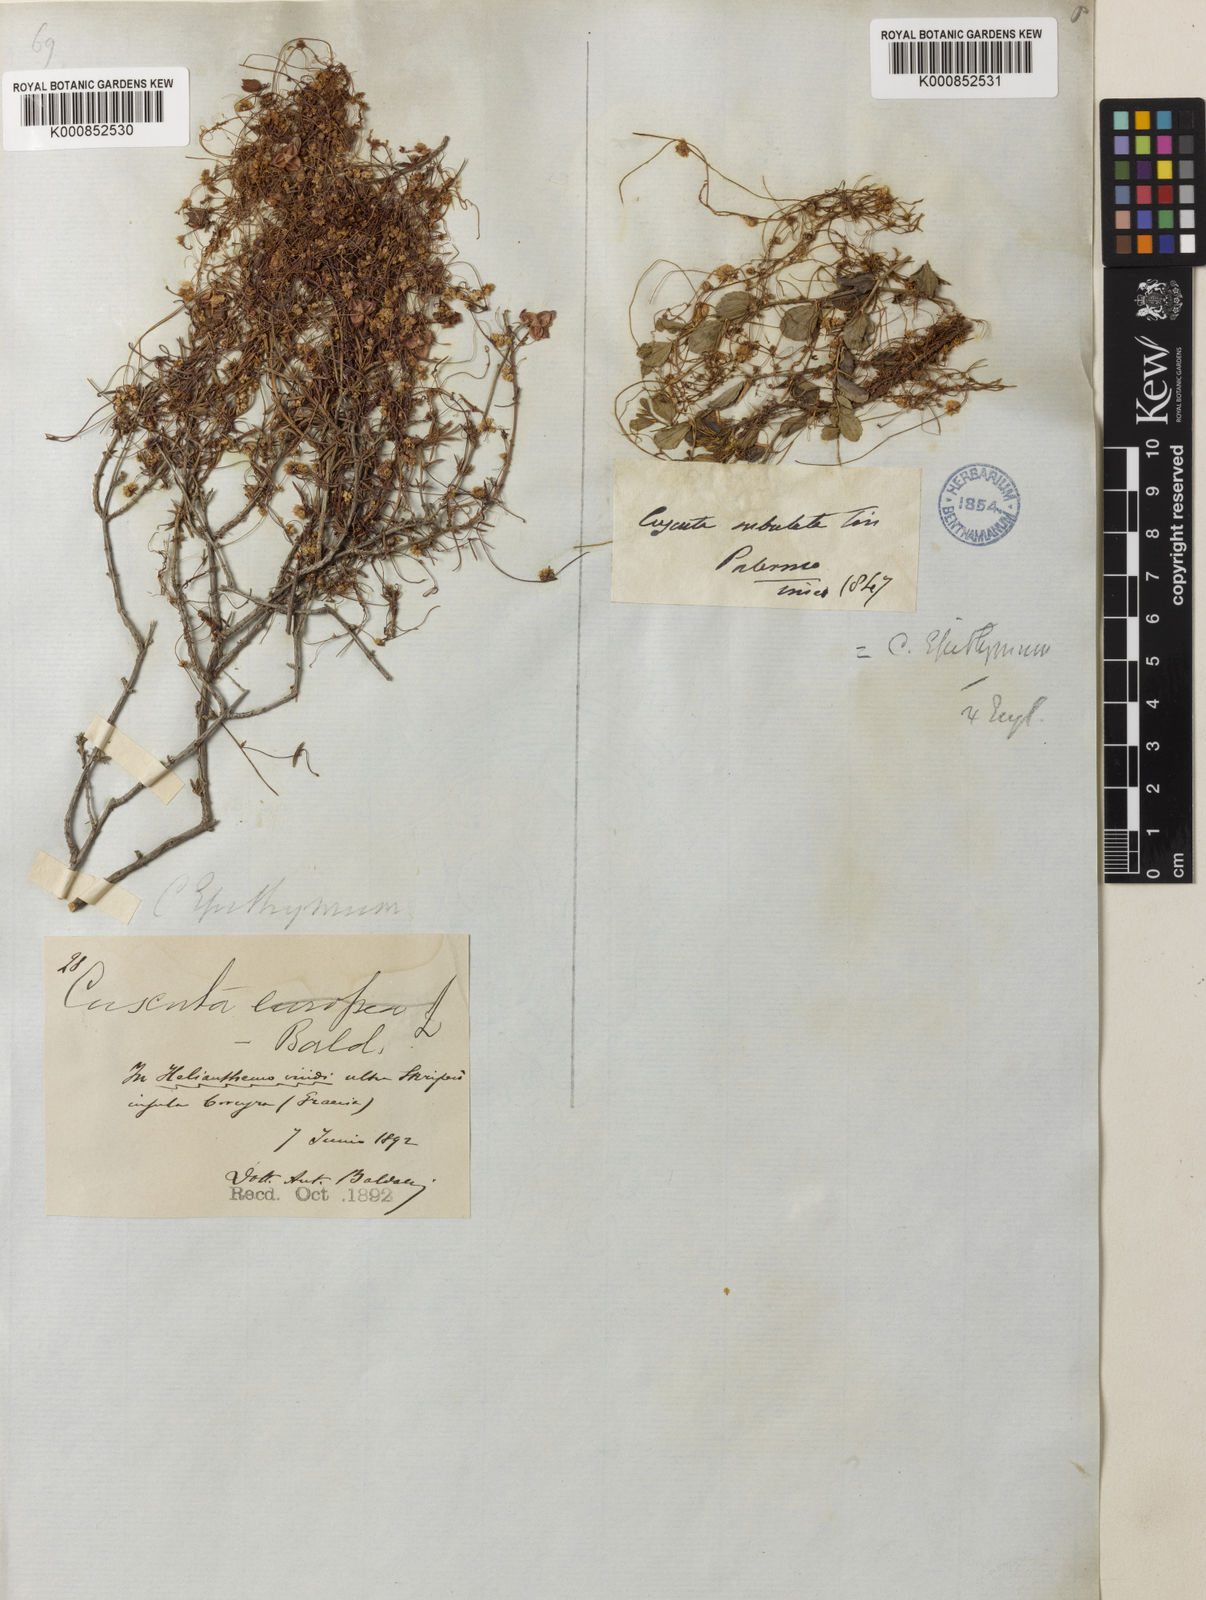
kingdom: Plantae
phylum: Tracheophyta
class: Magnoliopsida
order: Solanales
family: Convolvulaceae
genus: Cuscuta
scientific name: Cuscuta epithymum
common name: Clover dodder
